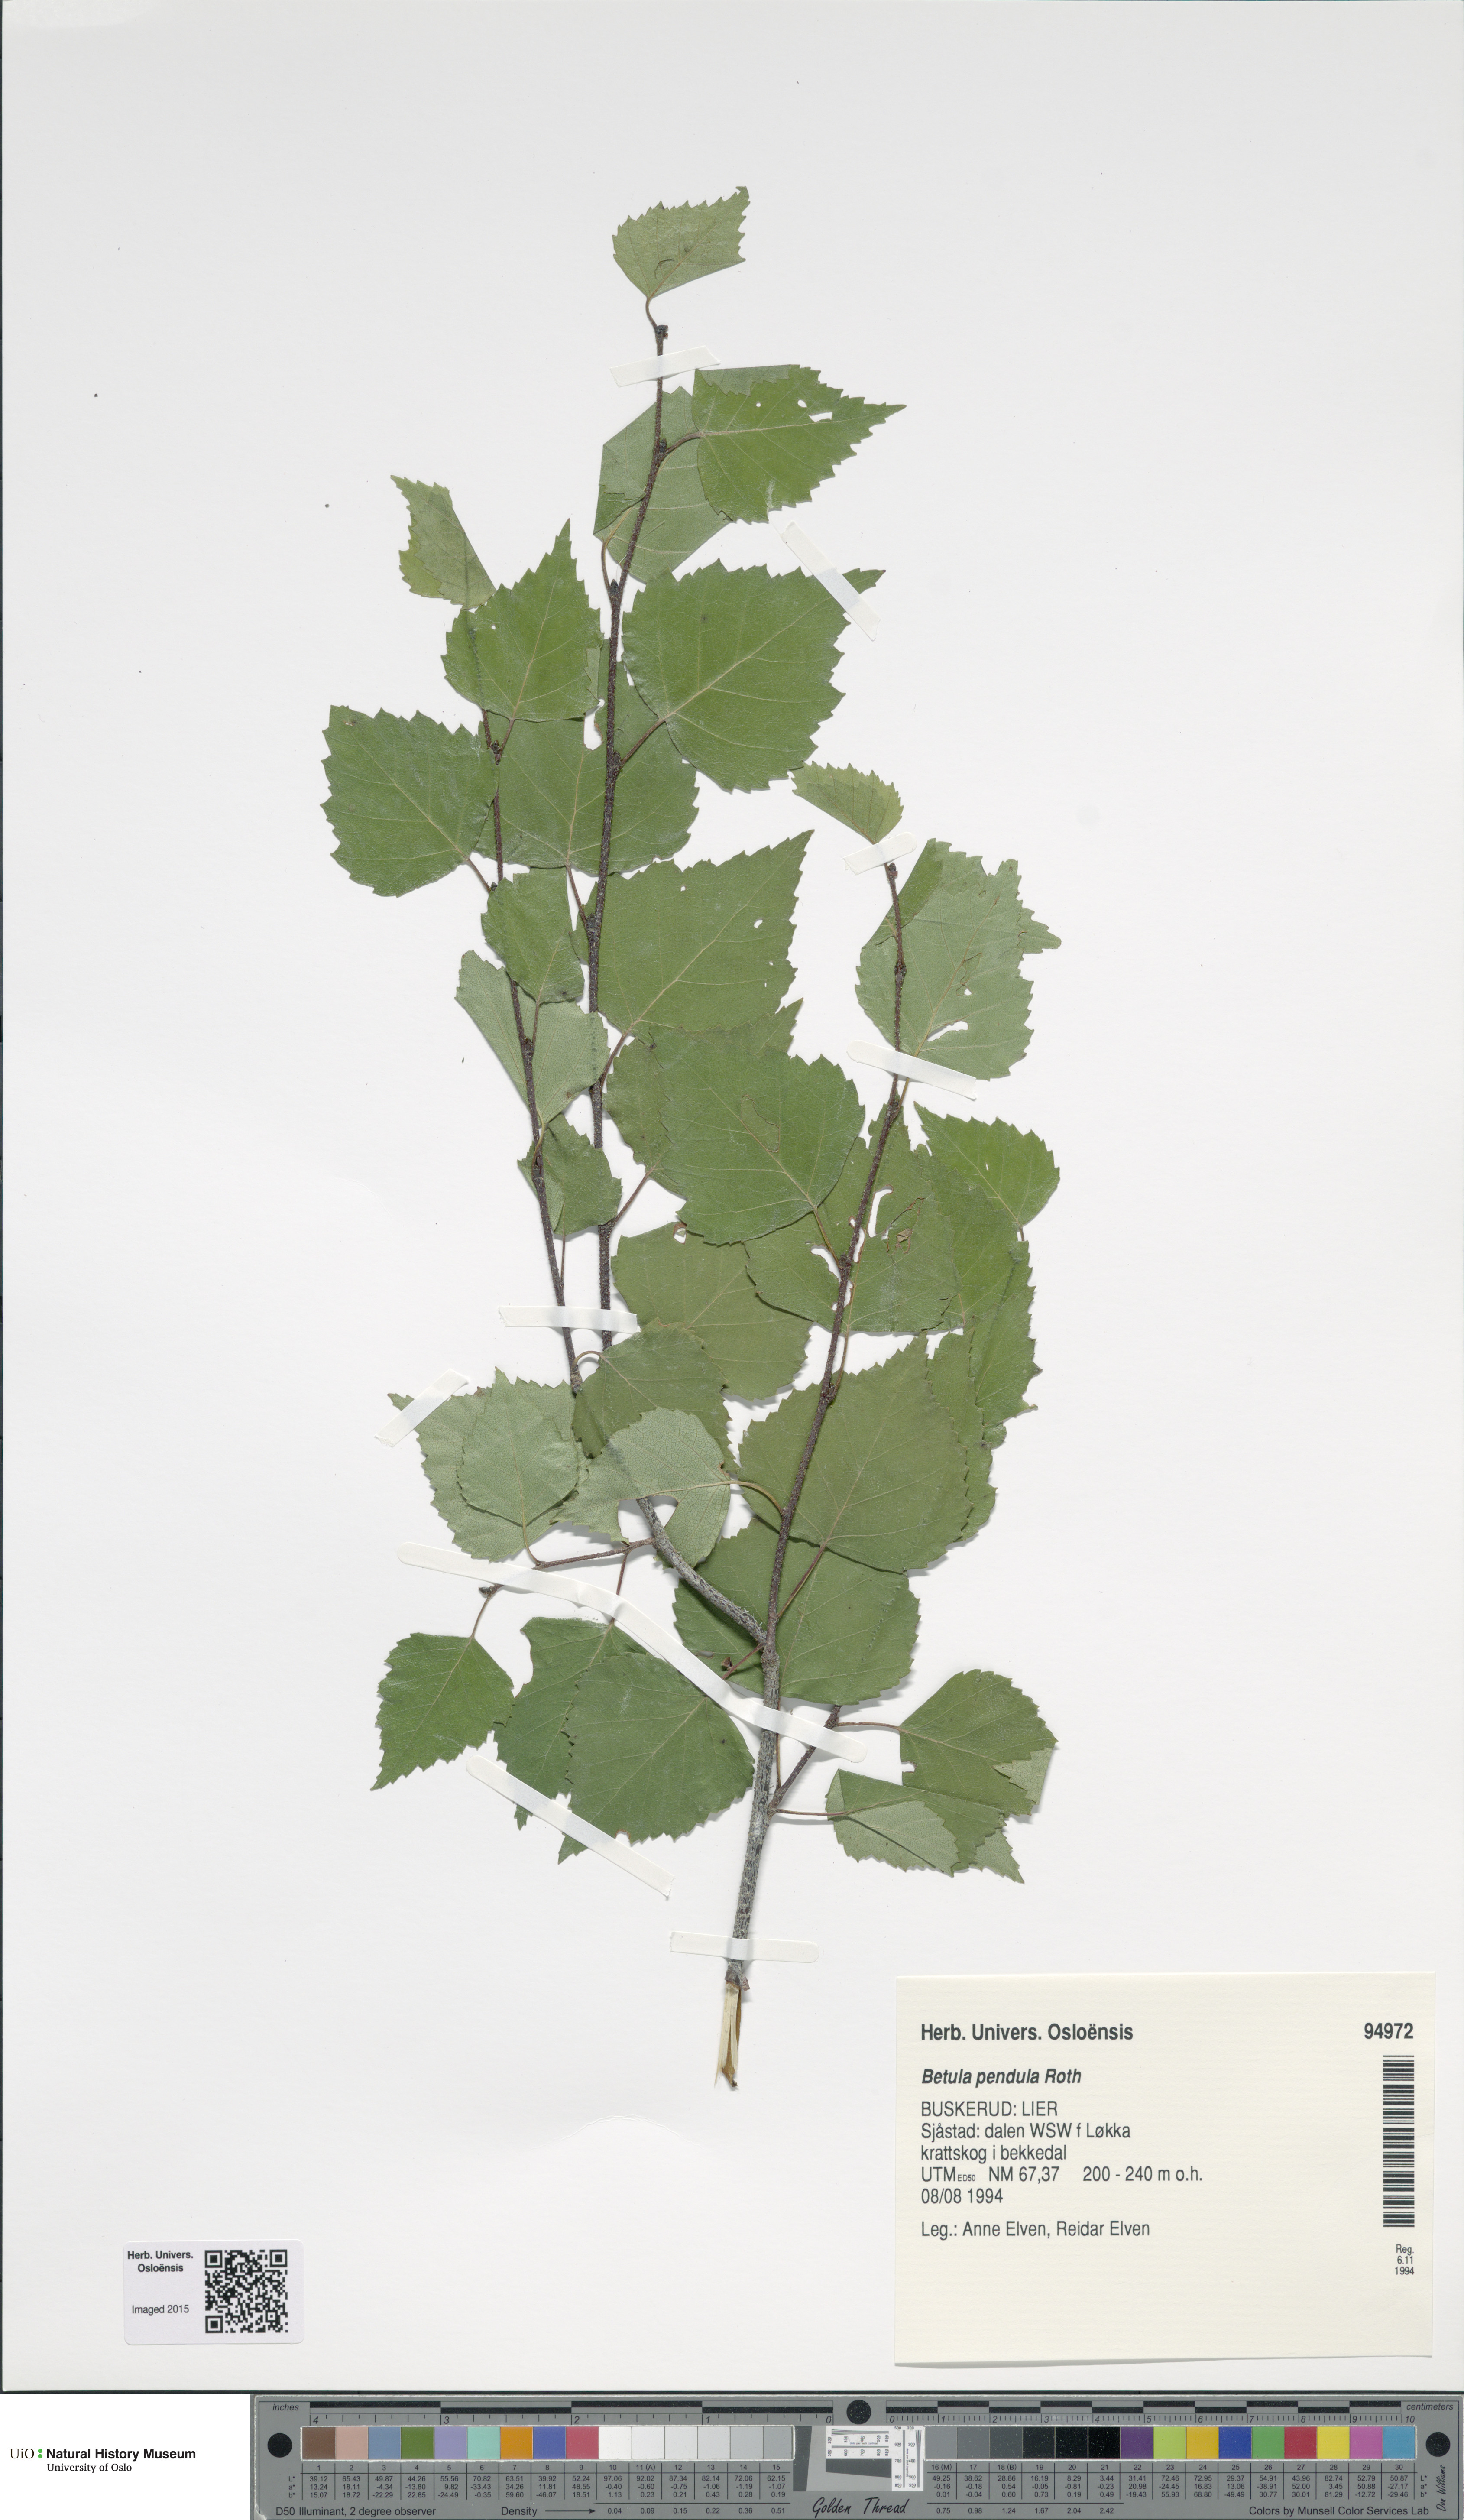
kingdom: Plantae
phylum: Tracheophyta
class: Magnoliopsida
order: Fagales
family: Betulaceae
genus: Betula
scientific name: Betula pendula
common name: Silver birch
